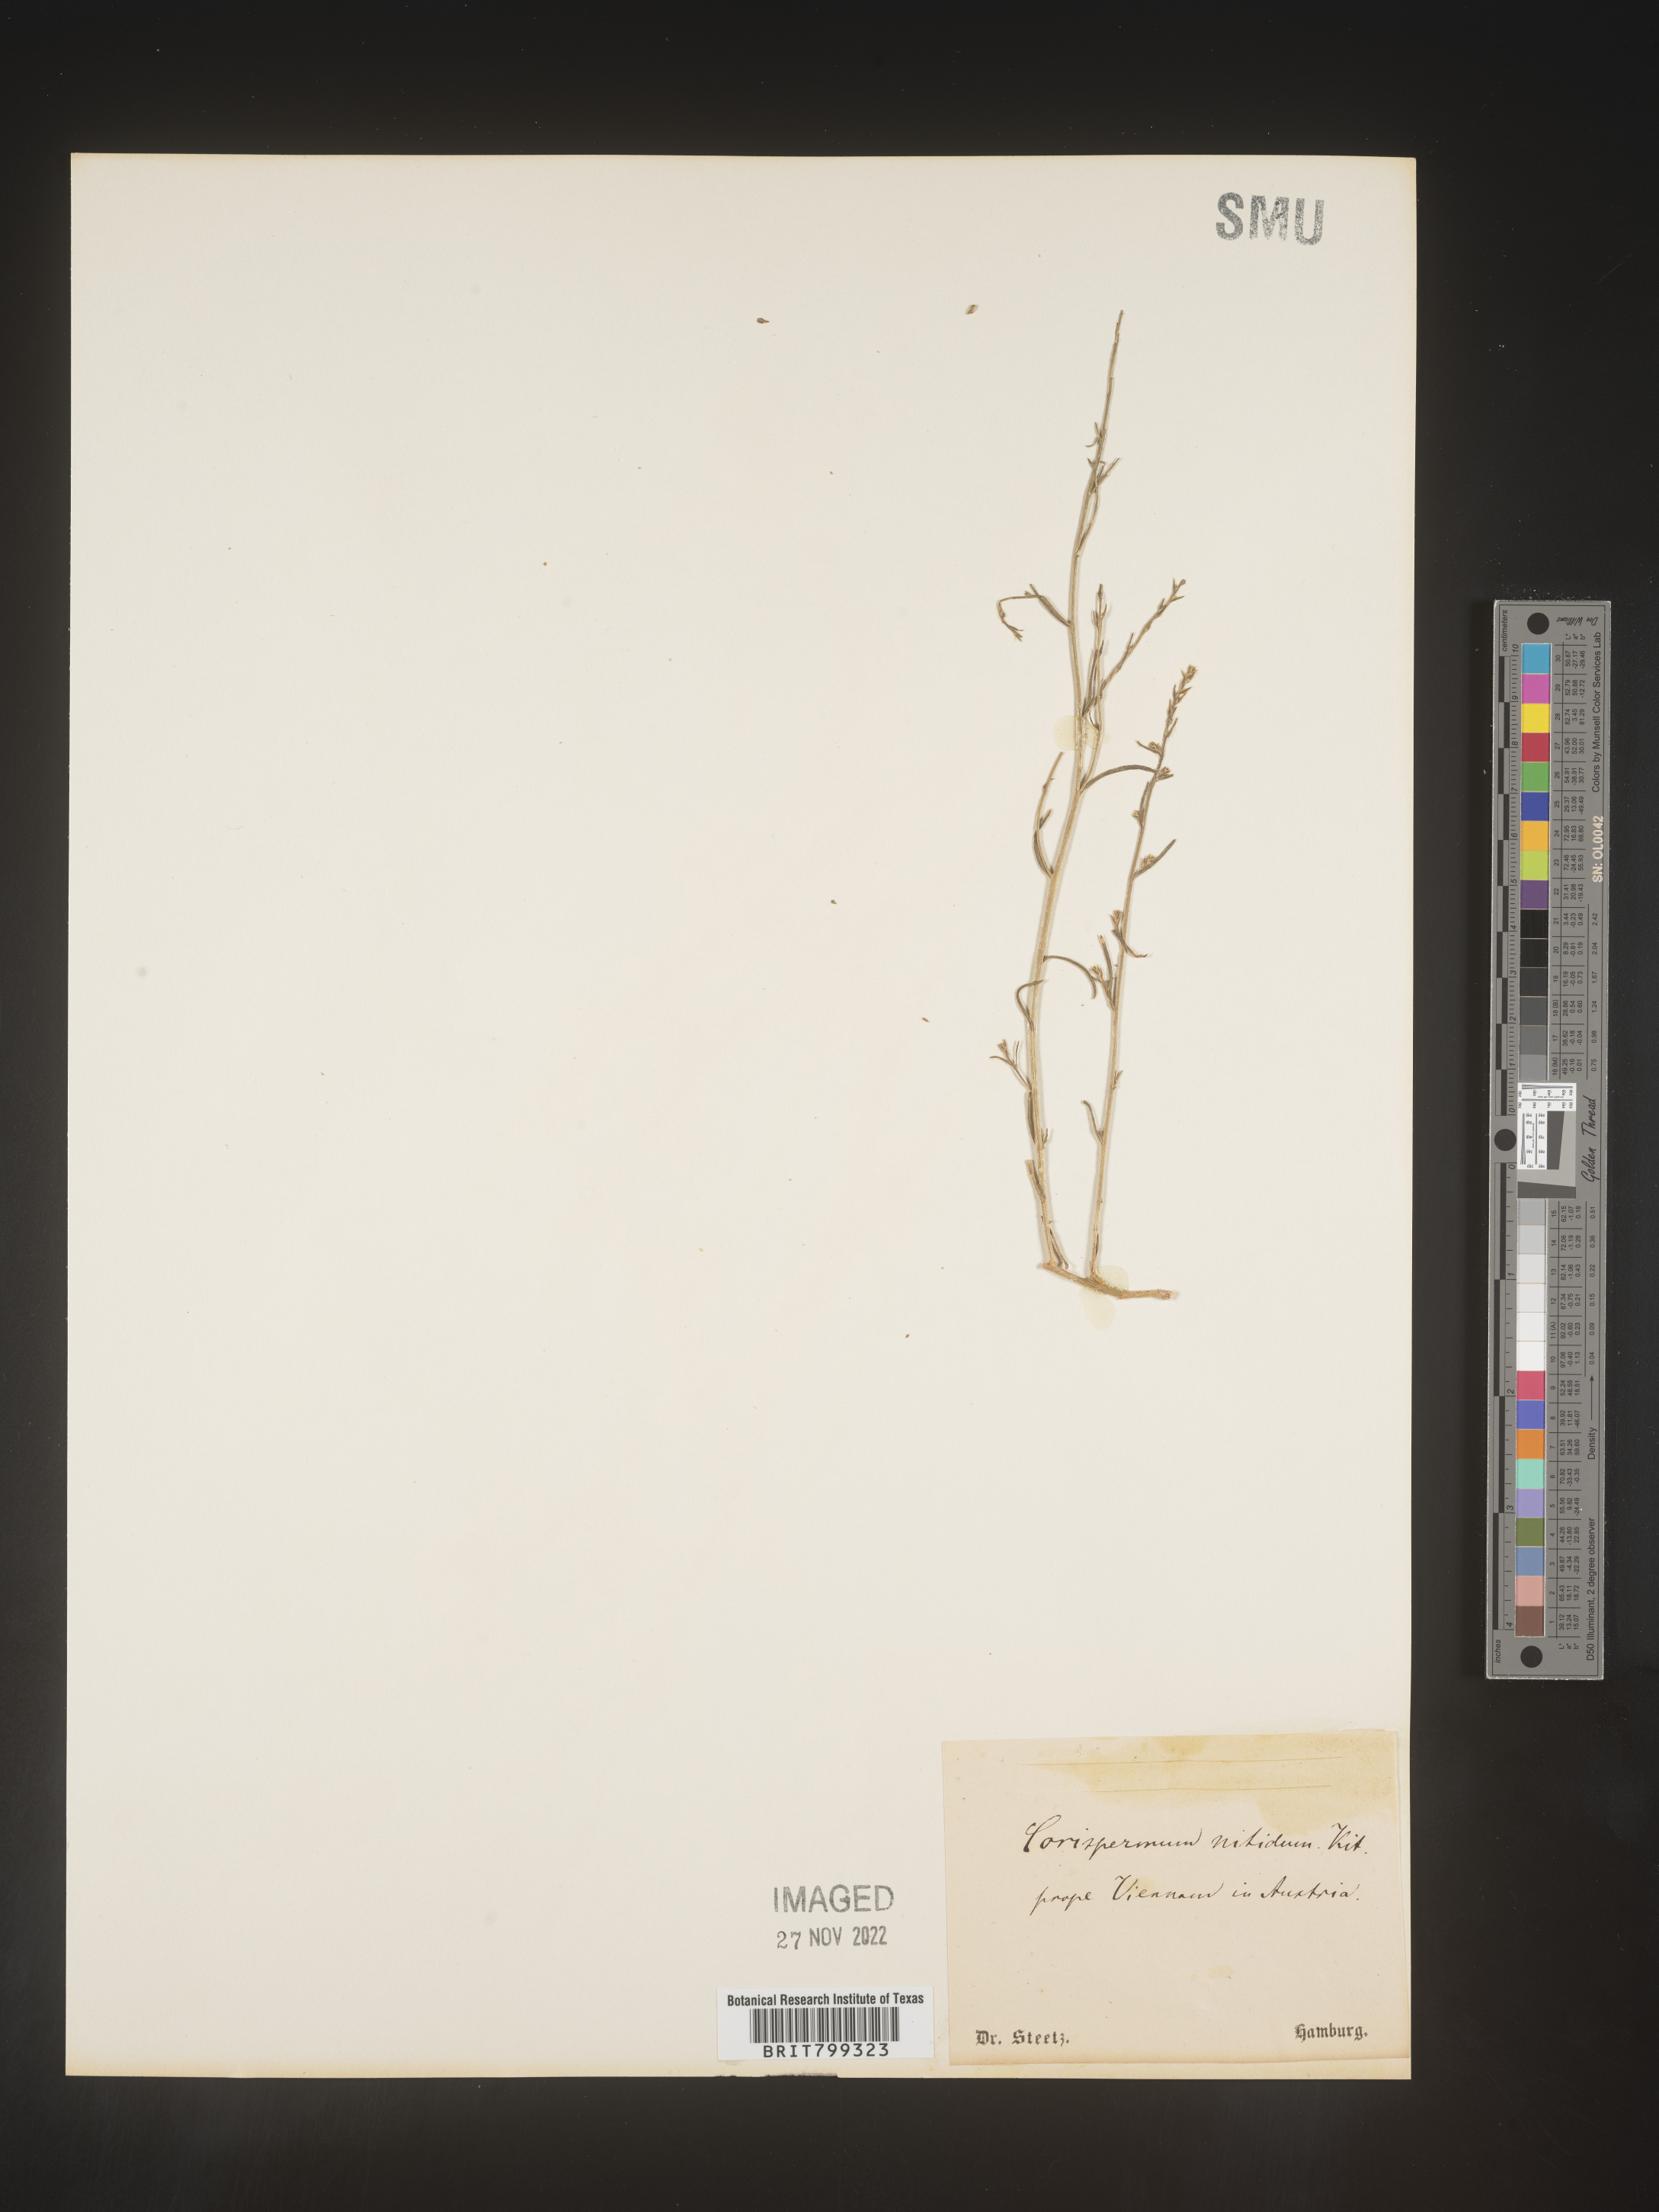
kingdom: Plantae
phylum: Tracheophyta
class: Magnoliopsida
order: Caryophyllales
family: Amaranthaceae
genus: Corispermum
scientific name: Corispermum
